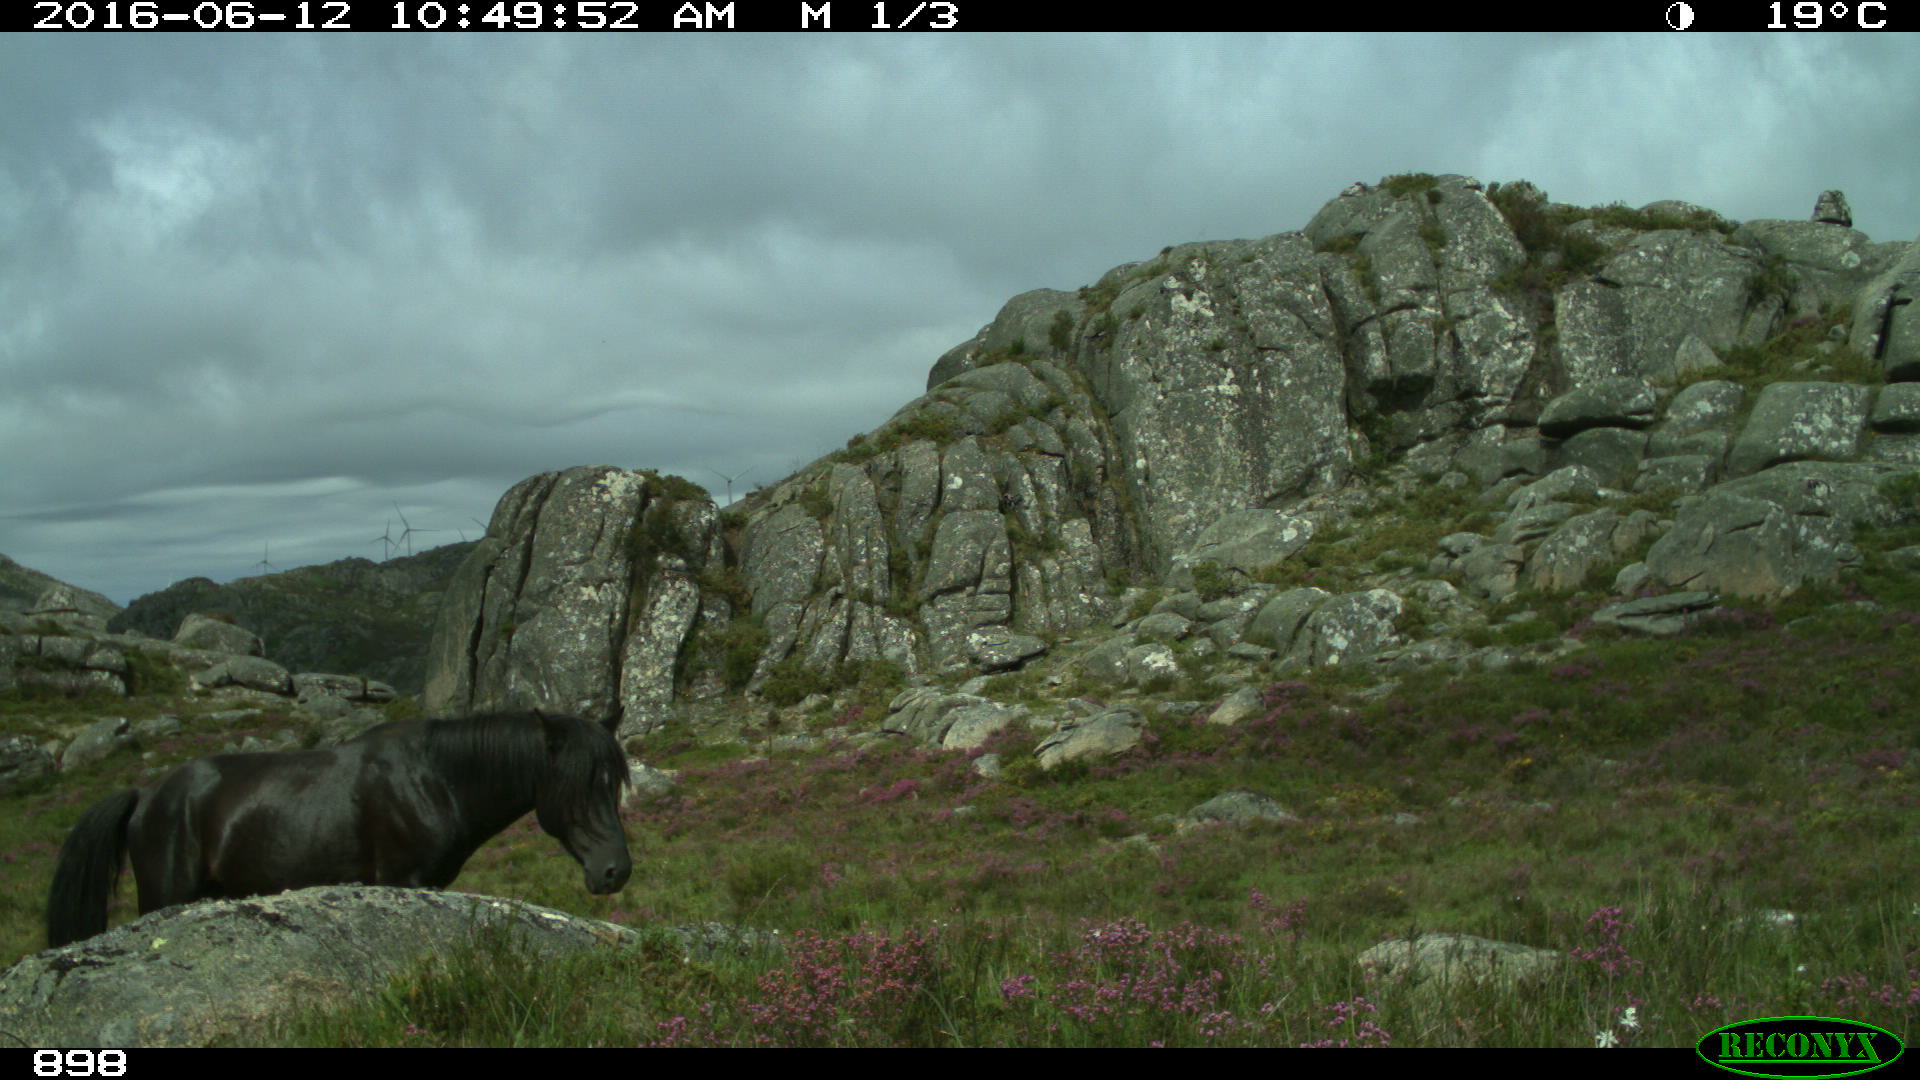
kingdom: Animalia
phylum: Chordata
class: Mammalia
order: Perissodactyla
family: Equidae
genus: Equus
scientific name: Equus caballus
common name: Horse
